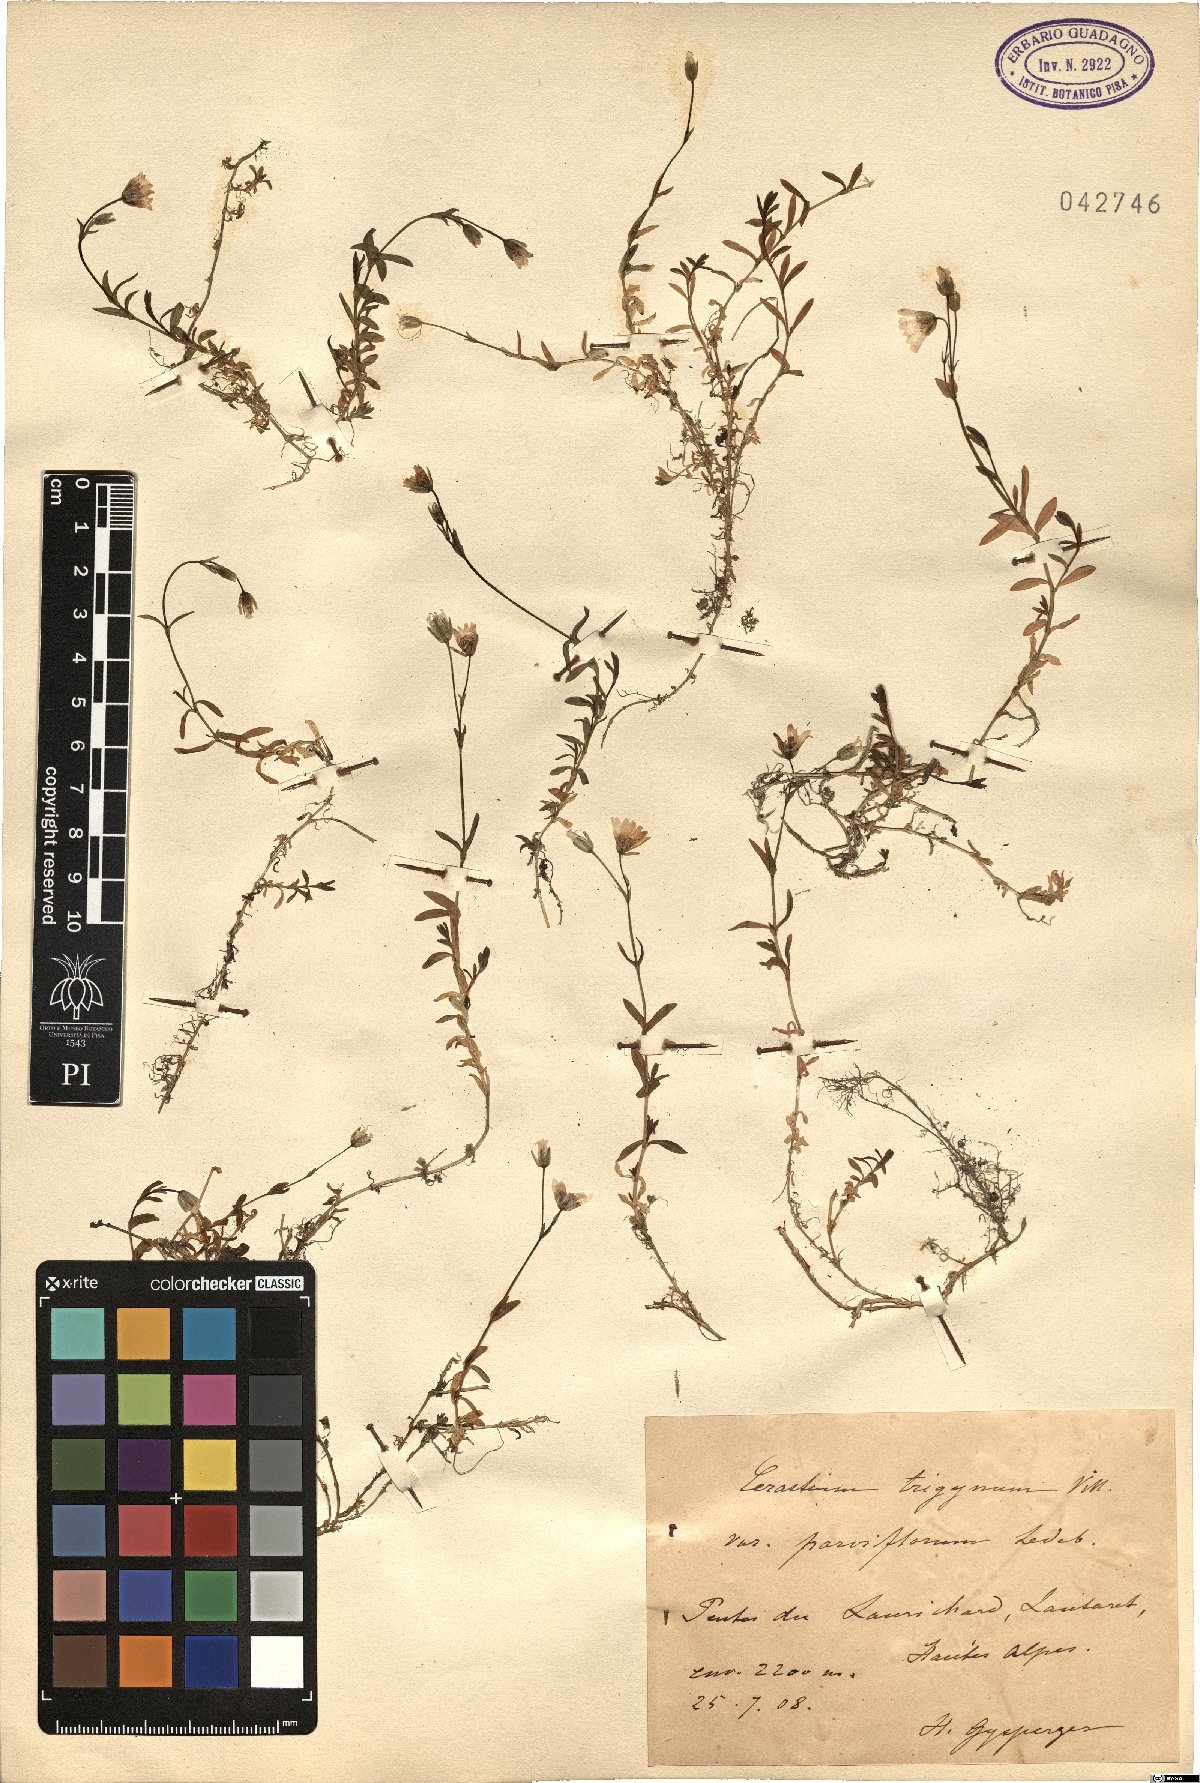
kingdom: Plantae
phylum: Tracheophyta
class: Magnoliopsida
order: Caryophyllales
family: Caryophyllaceae
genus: Dichodon
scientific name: Dichodon cerastoides
